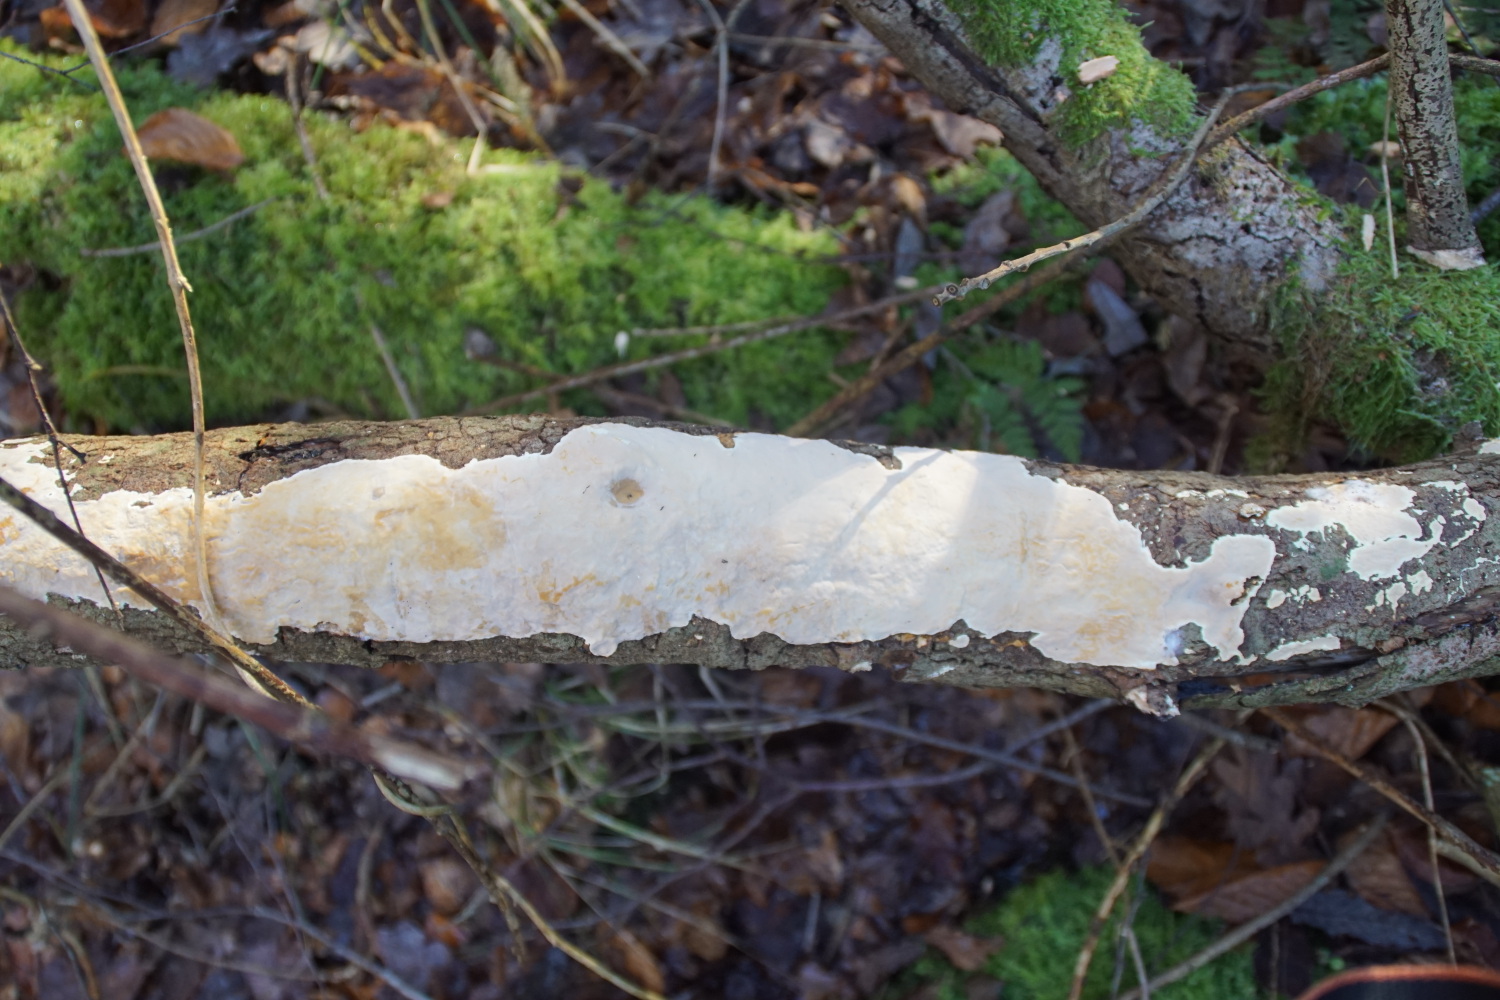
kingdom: Fungi
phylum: Basidiomycota
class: Agaricomycetes
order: Russulales
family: Peniophoraceae
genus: Scytinostroma
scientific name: Scytinostroma hemidichophyticum
